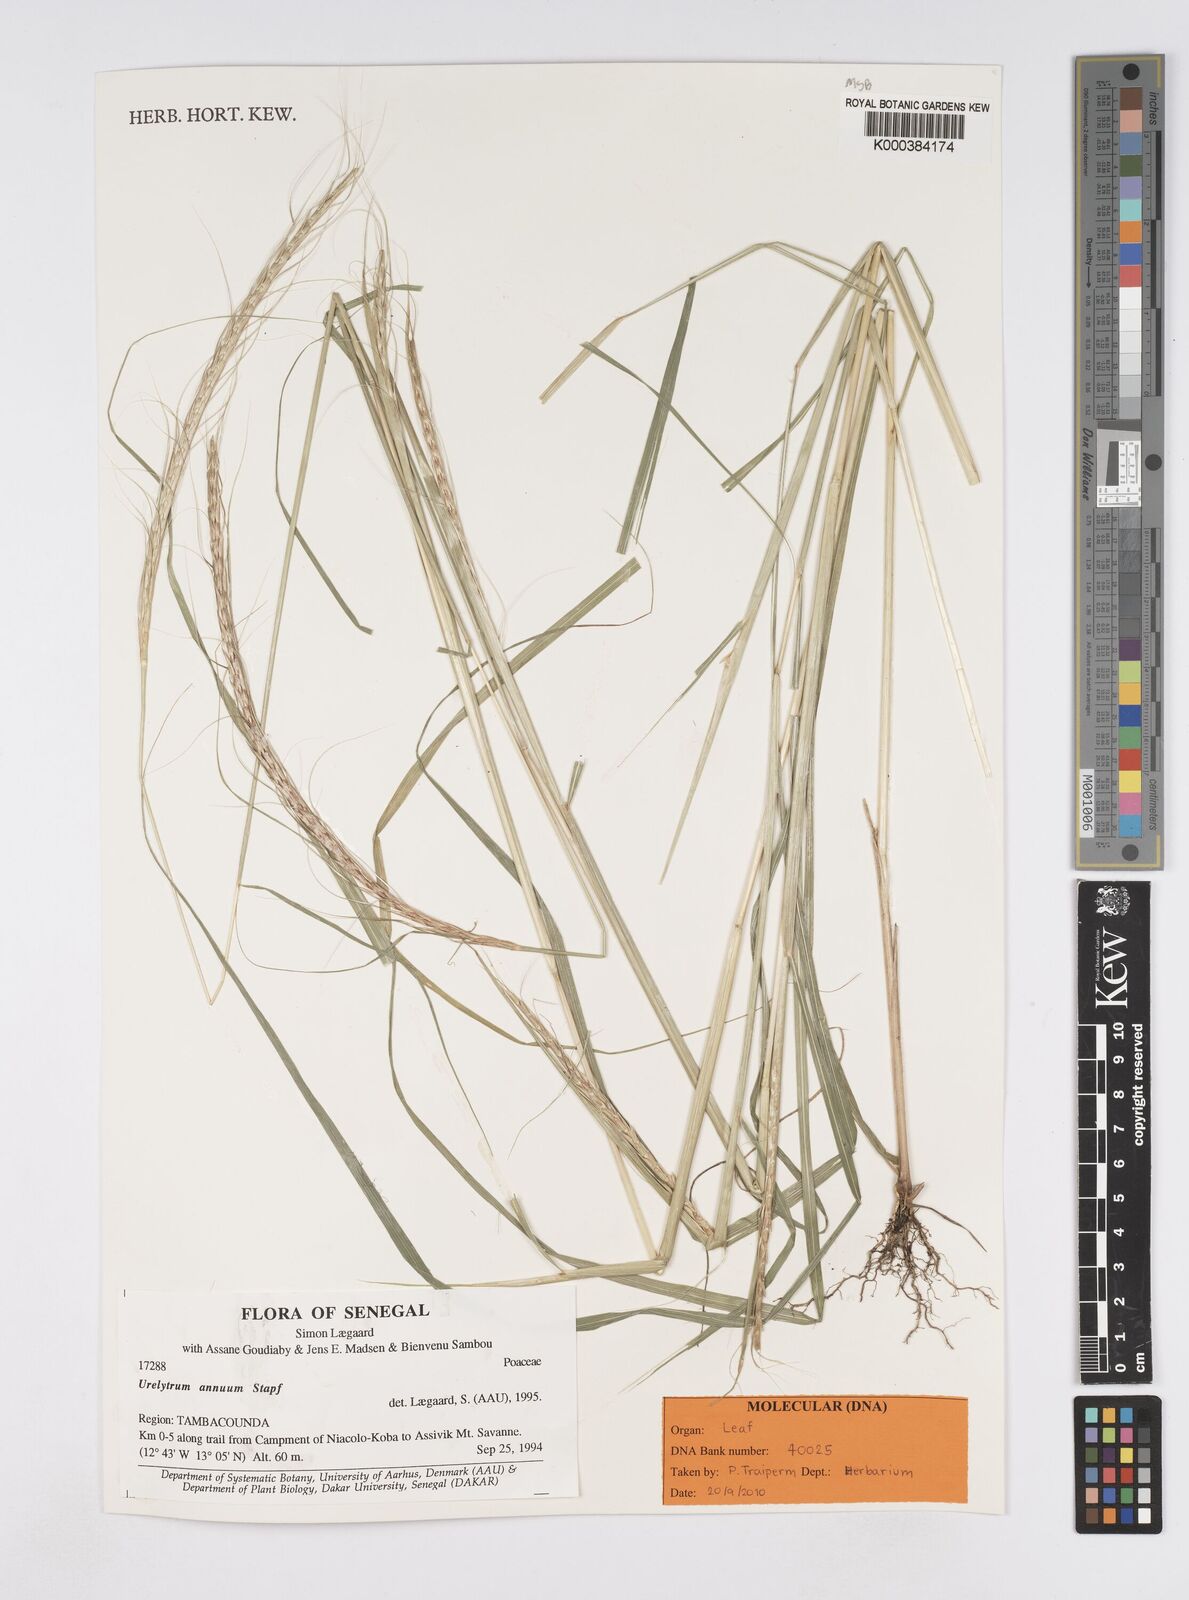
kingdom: Plantae
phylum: Tracheophyta
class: Liliopsida
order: Poales
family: Poaceae
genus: Urelytrum
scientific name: Urelytrum annuum
